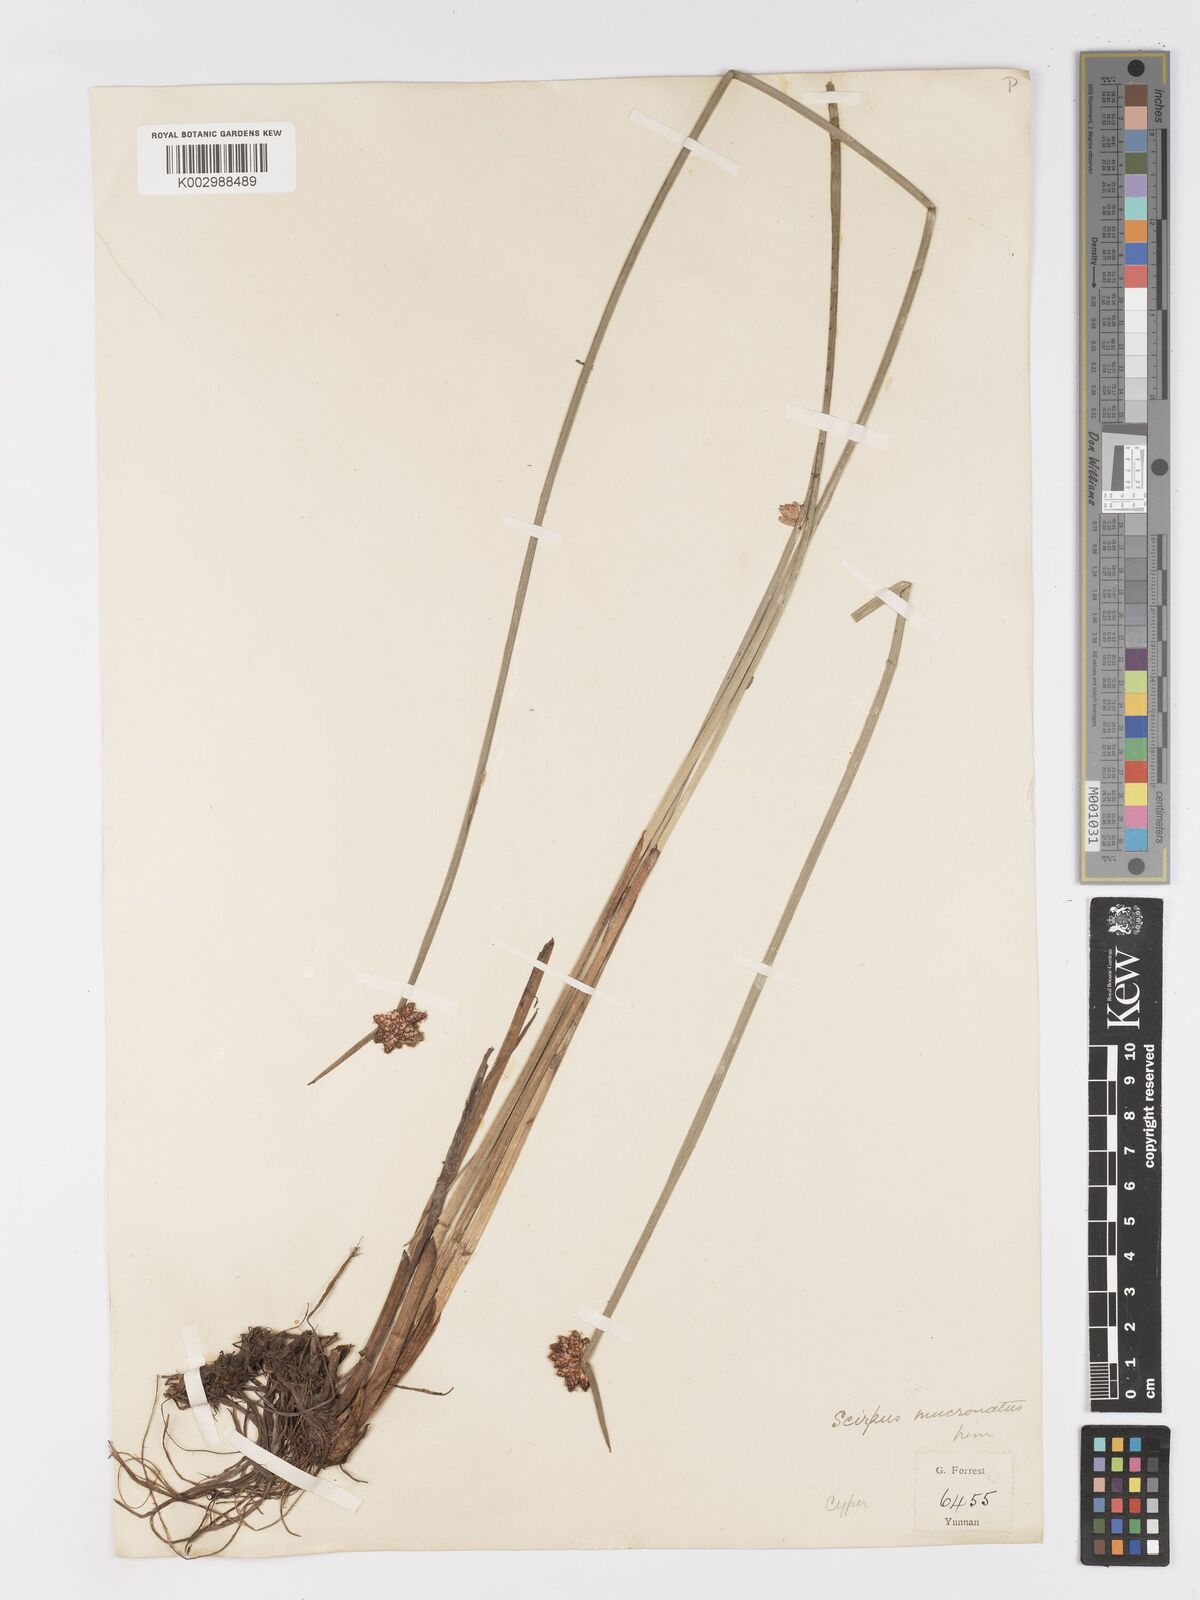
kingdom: Plantae
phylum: Tracheophyta
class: Liliopsida
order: Poales
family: Cyperaceae
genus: Schoenoplectiella
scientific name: Schoenoplectiella mucronata
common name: Bog bulrush
